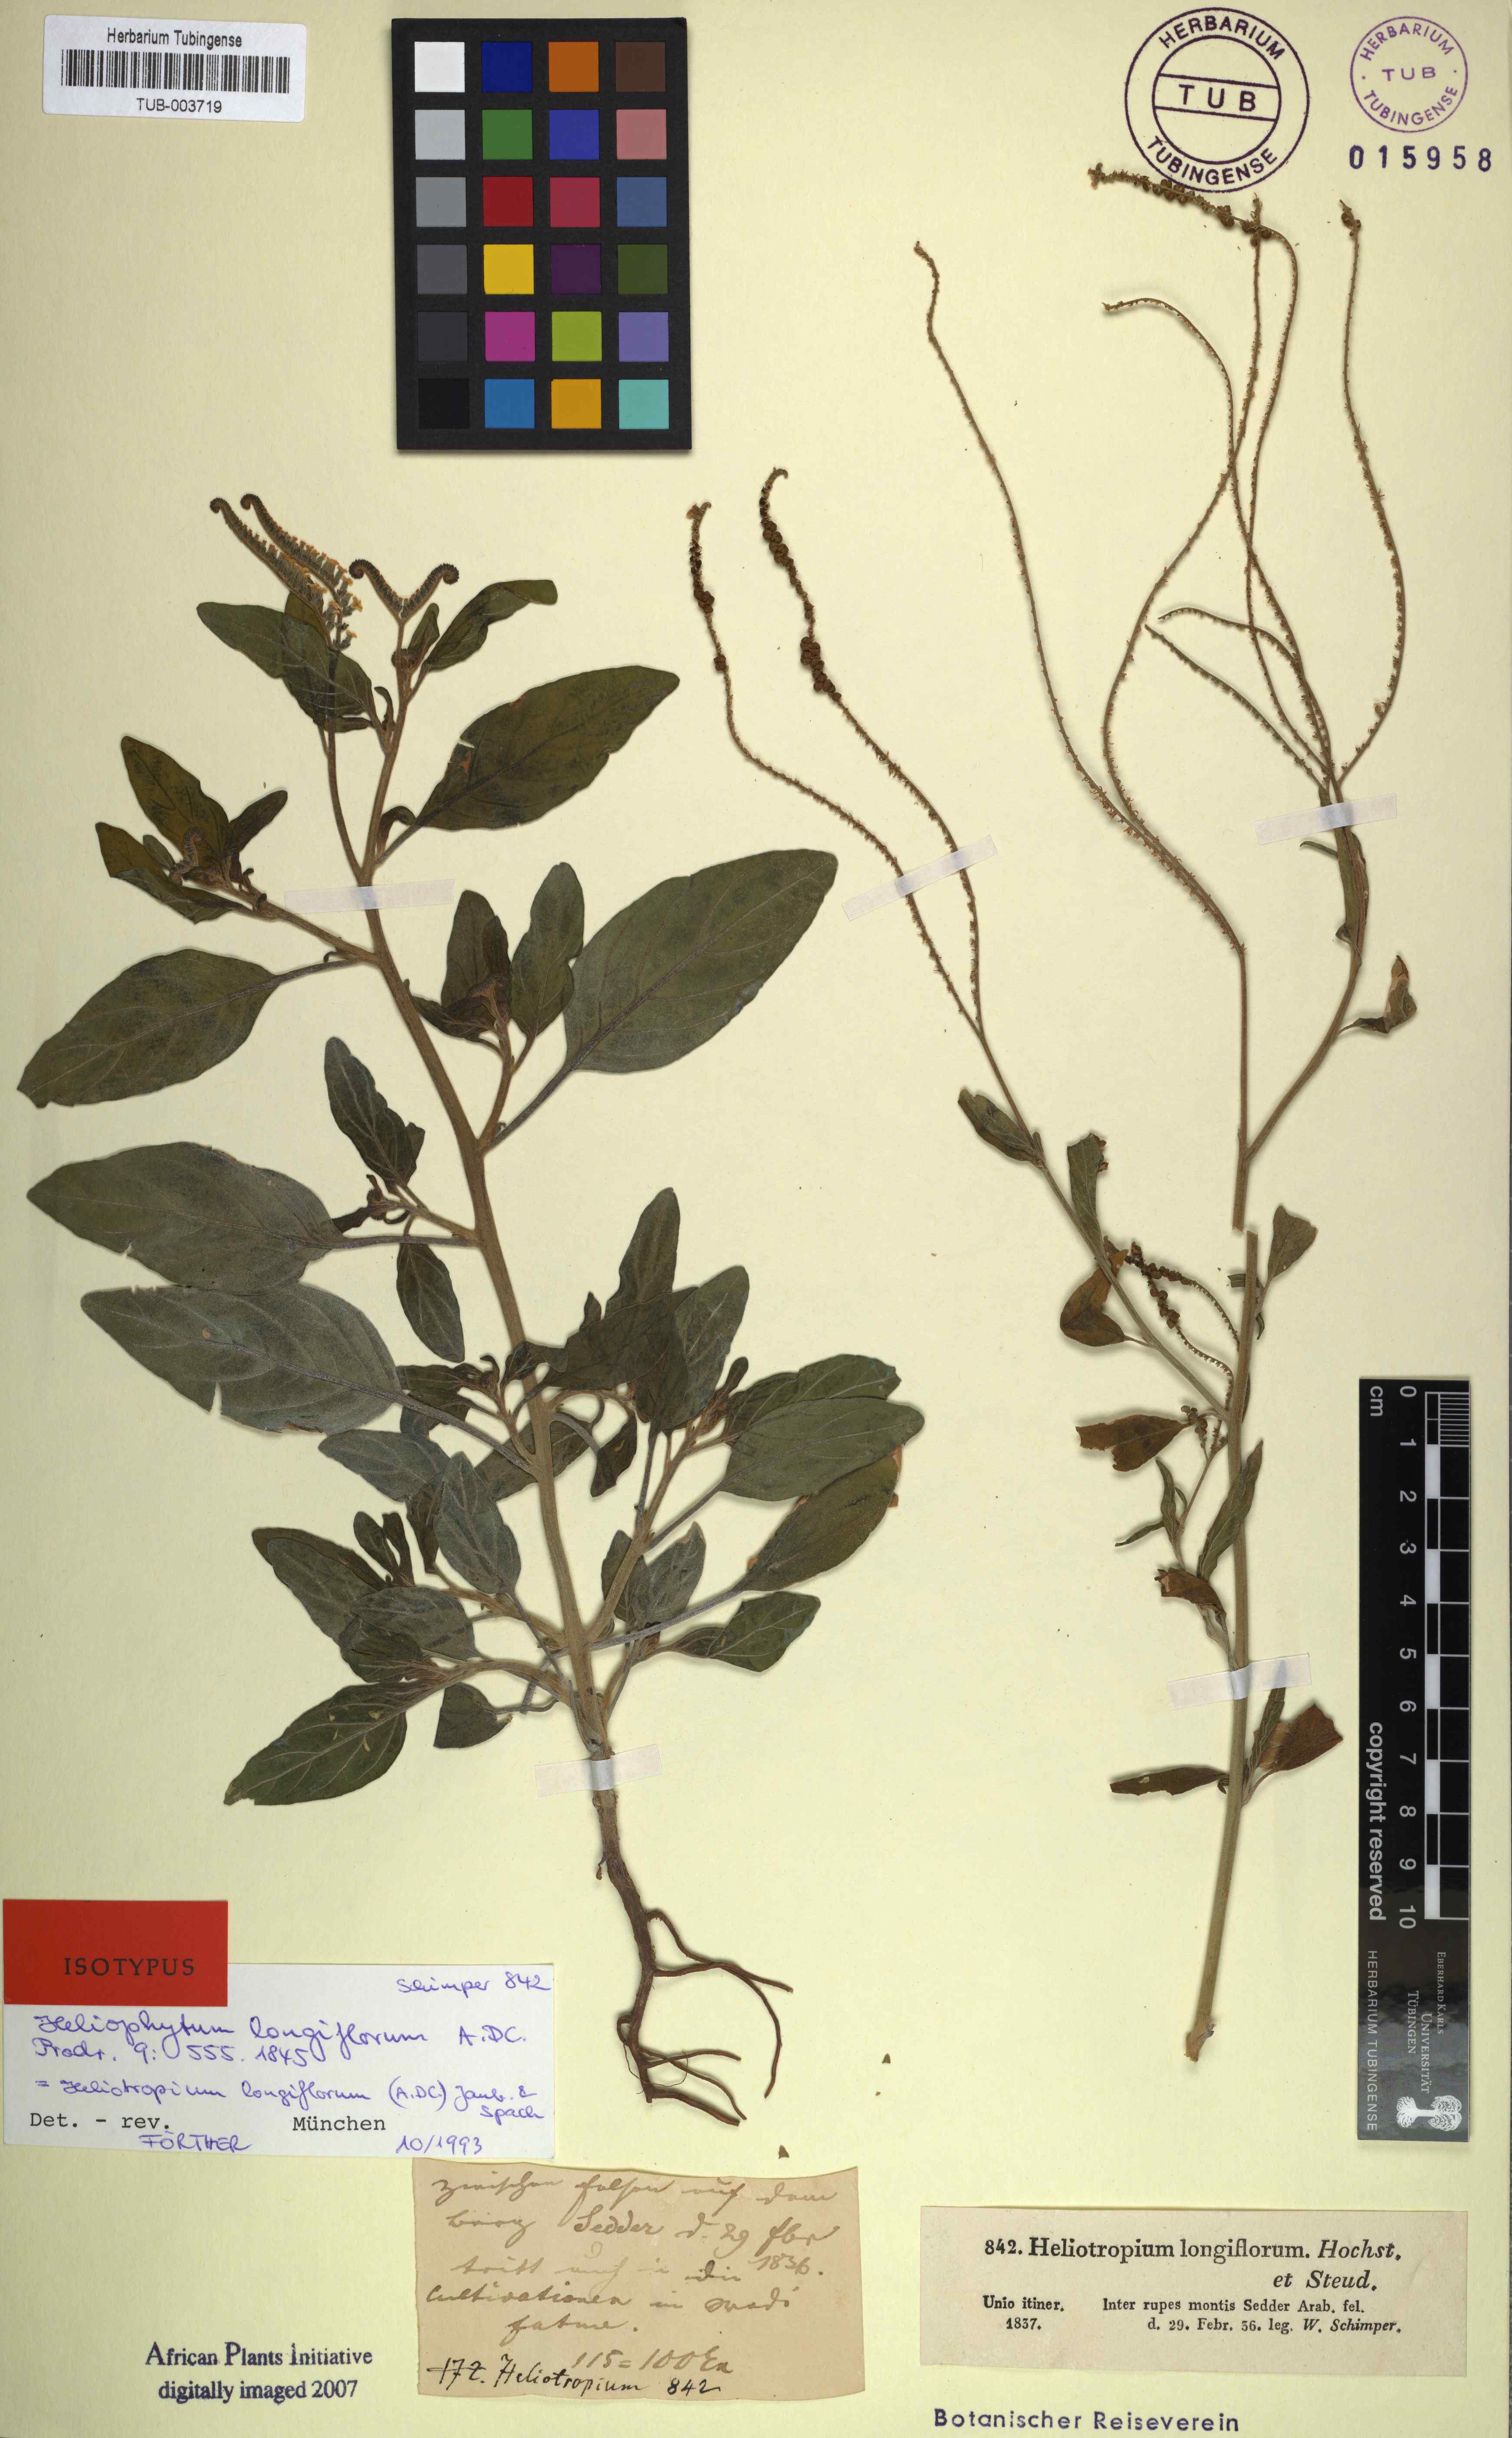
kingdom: Plantae
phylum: Tracheophyta
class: Magnoliopsida
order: Boraginales
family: Heliotropiaceae
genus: Heliotropium
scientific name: Heliotropium longiflorum
